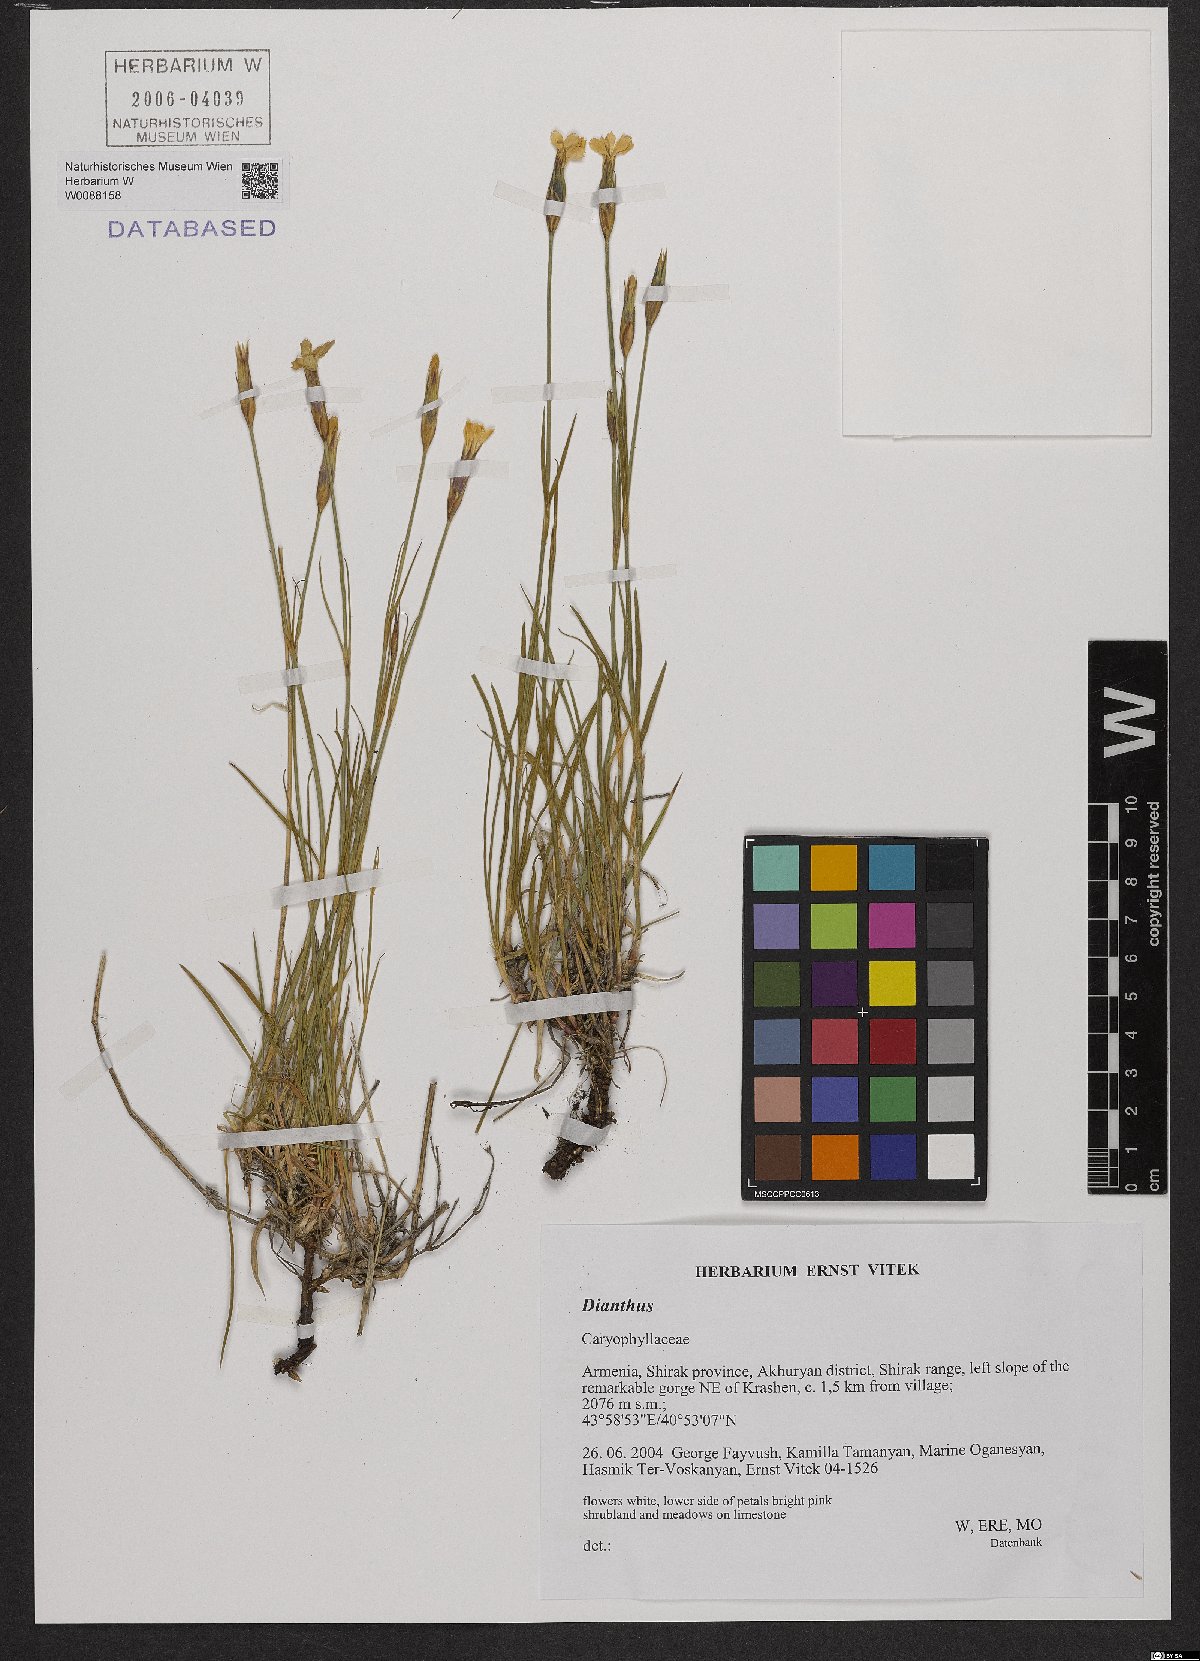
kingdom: Plantae
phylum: Tracheophyta
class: Magnoliopsida
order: Caryophyllales
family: Caryophyllaceae
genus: Dianthus
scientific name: Dianthus
